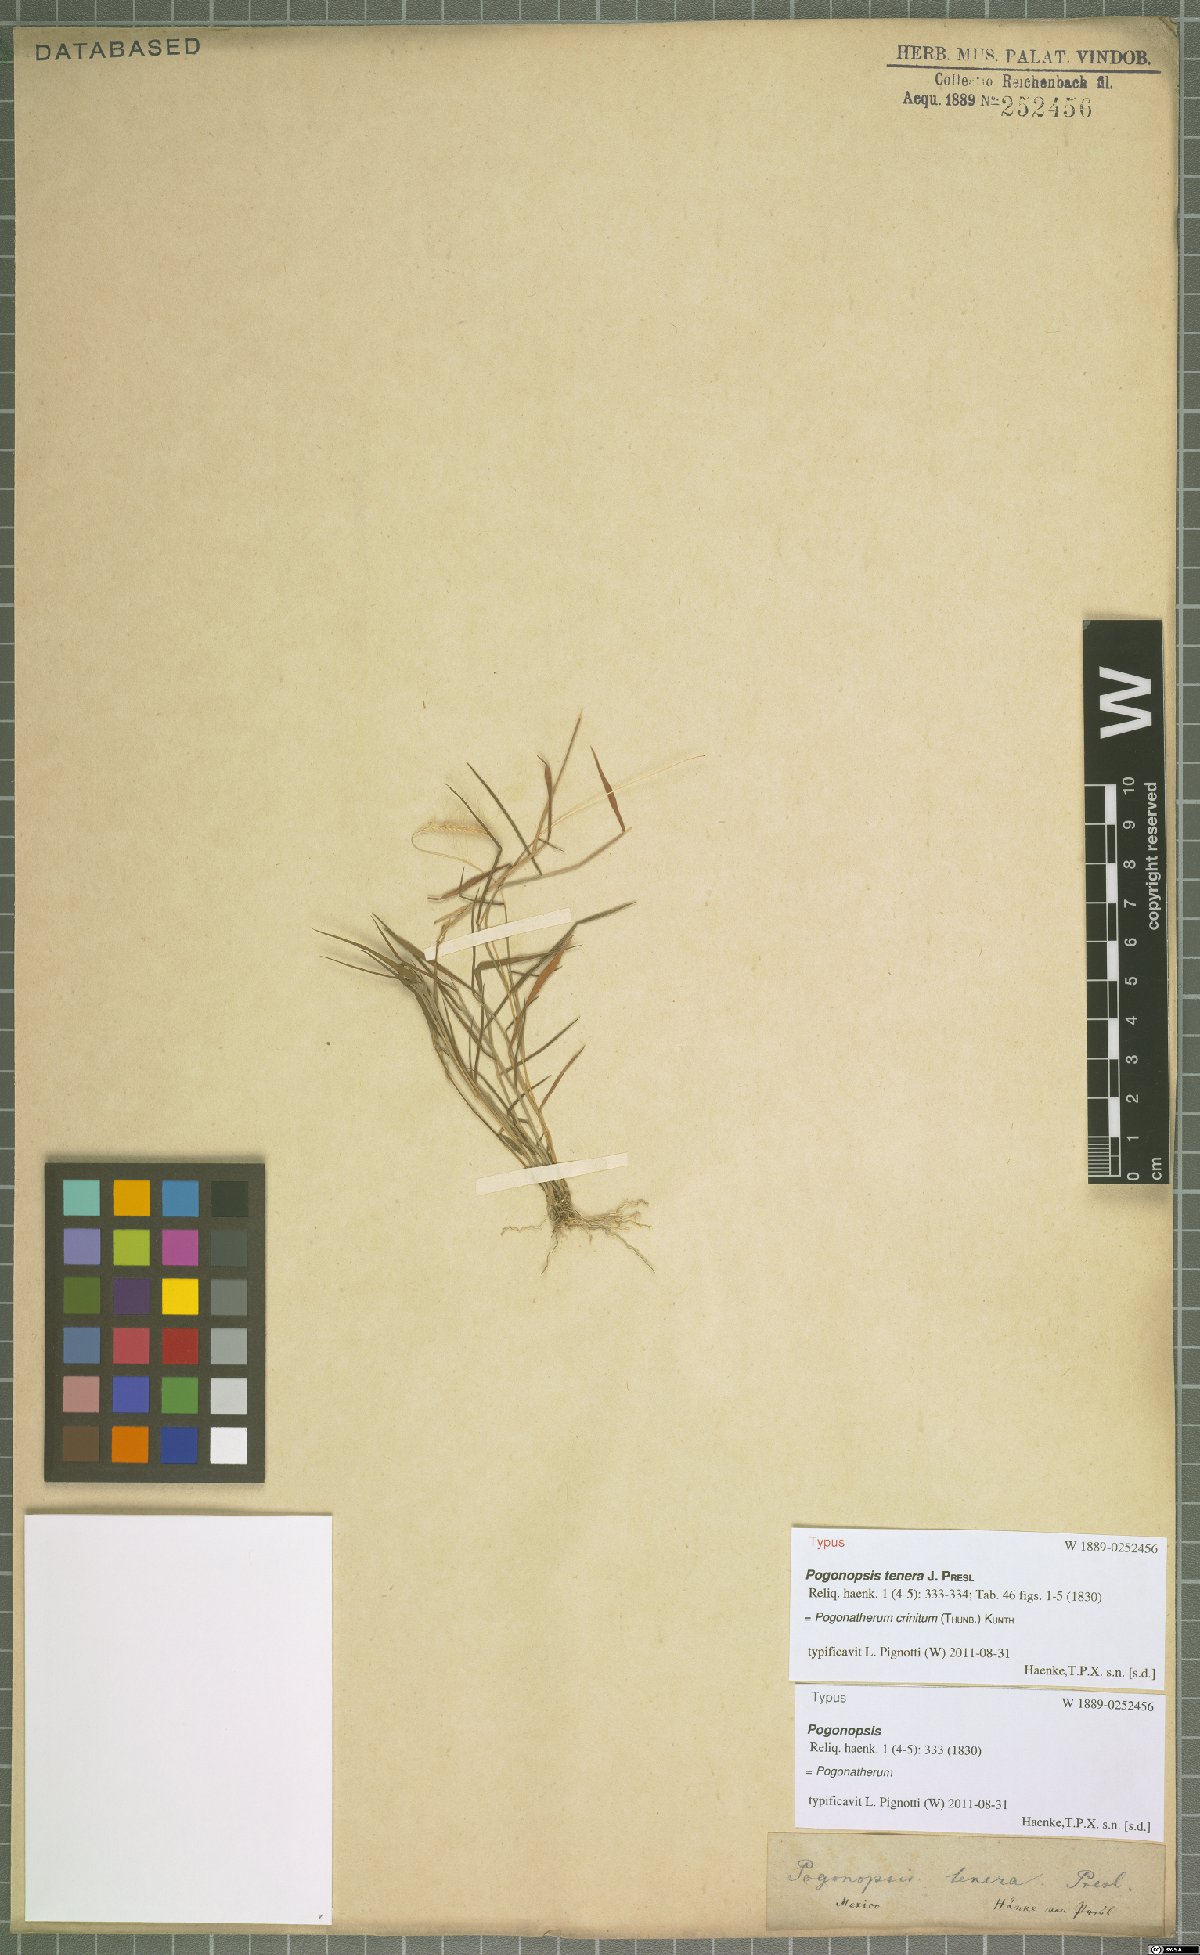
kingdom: Plantae
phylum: Tracheophyta
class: Liliopsida
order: Poales
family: Poaceae
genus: Pogonatherum
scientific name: Pogonatherum crinitum
